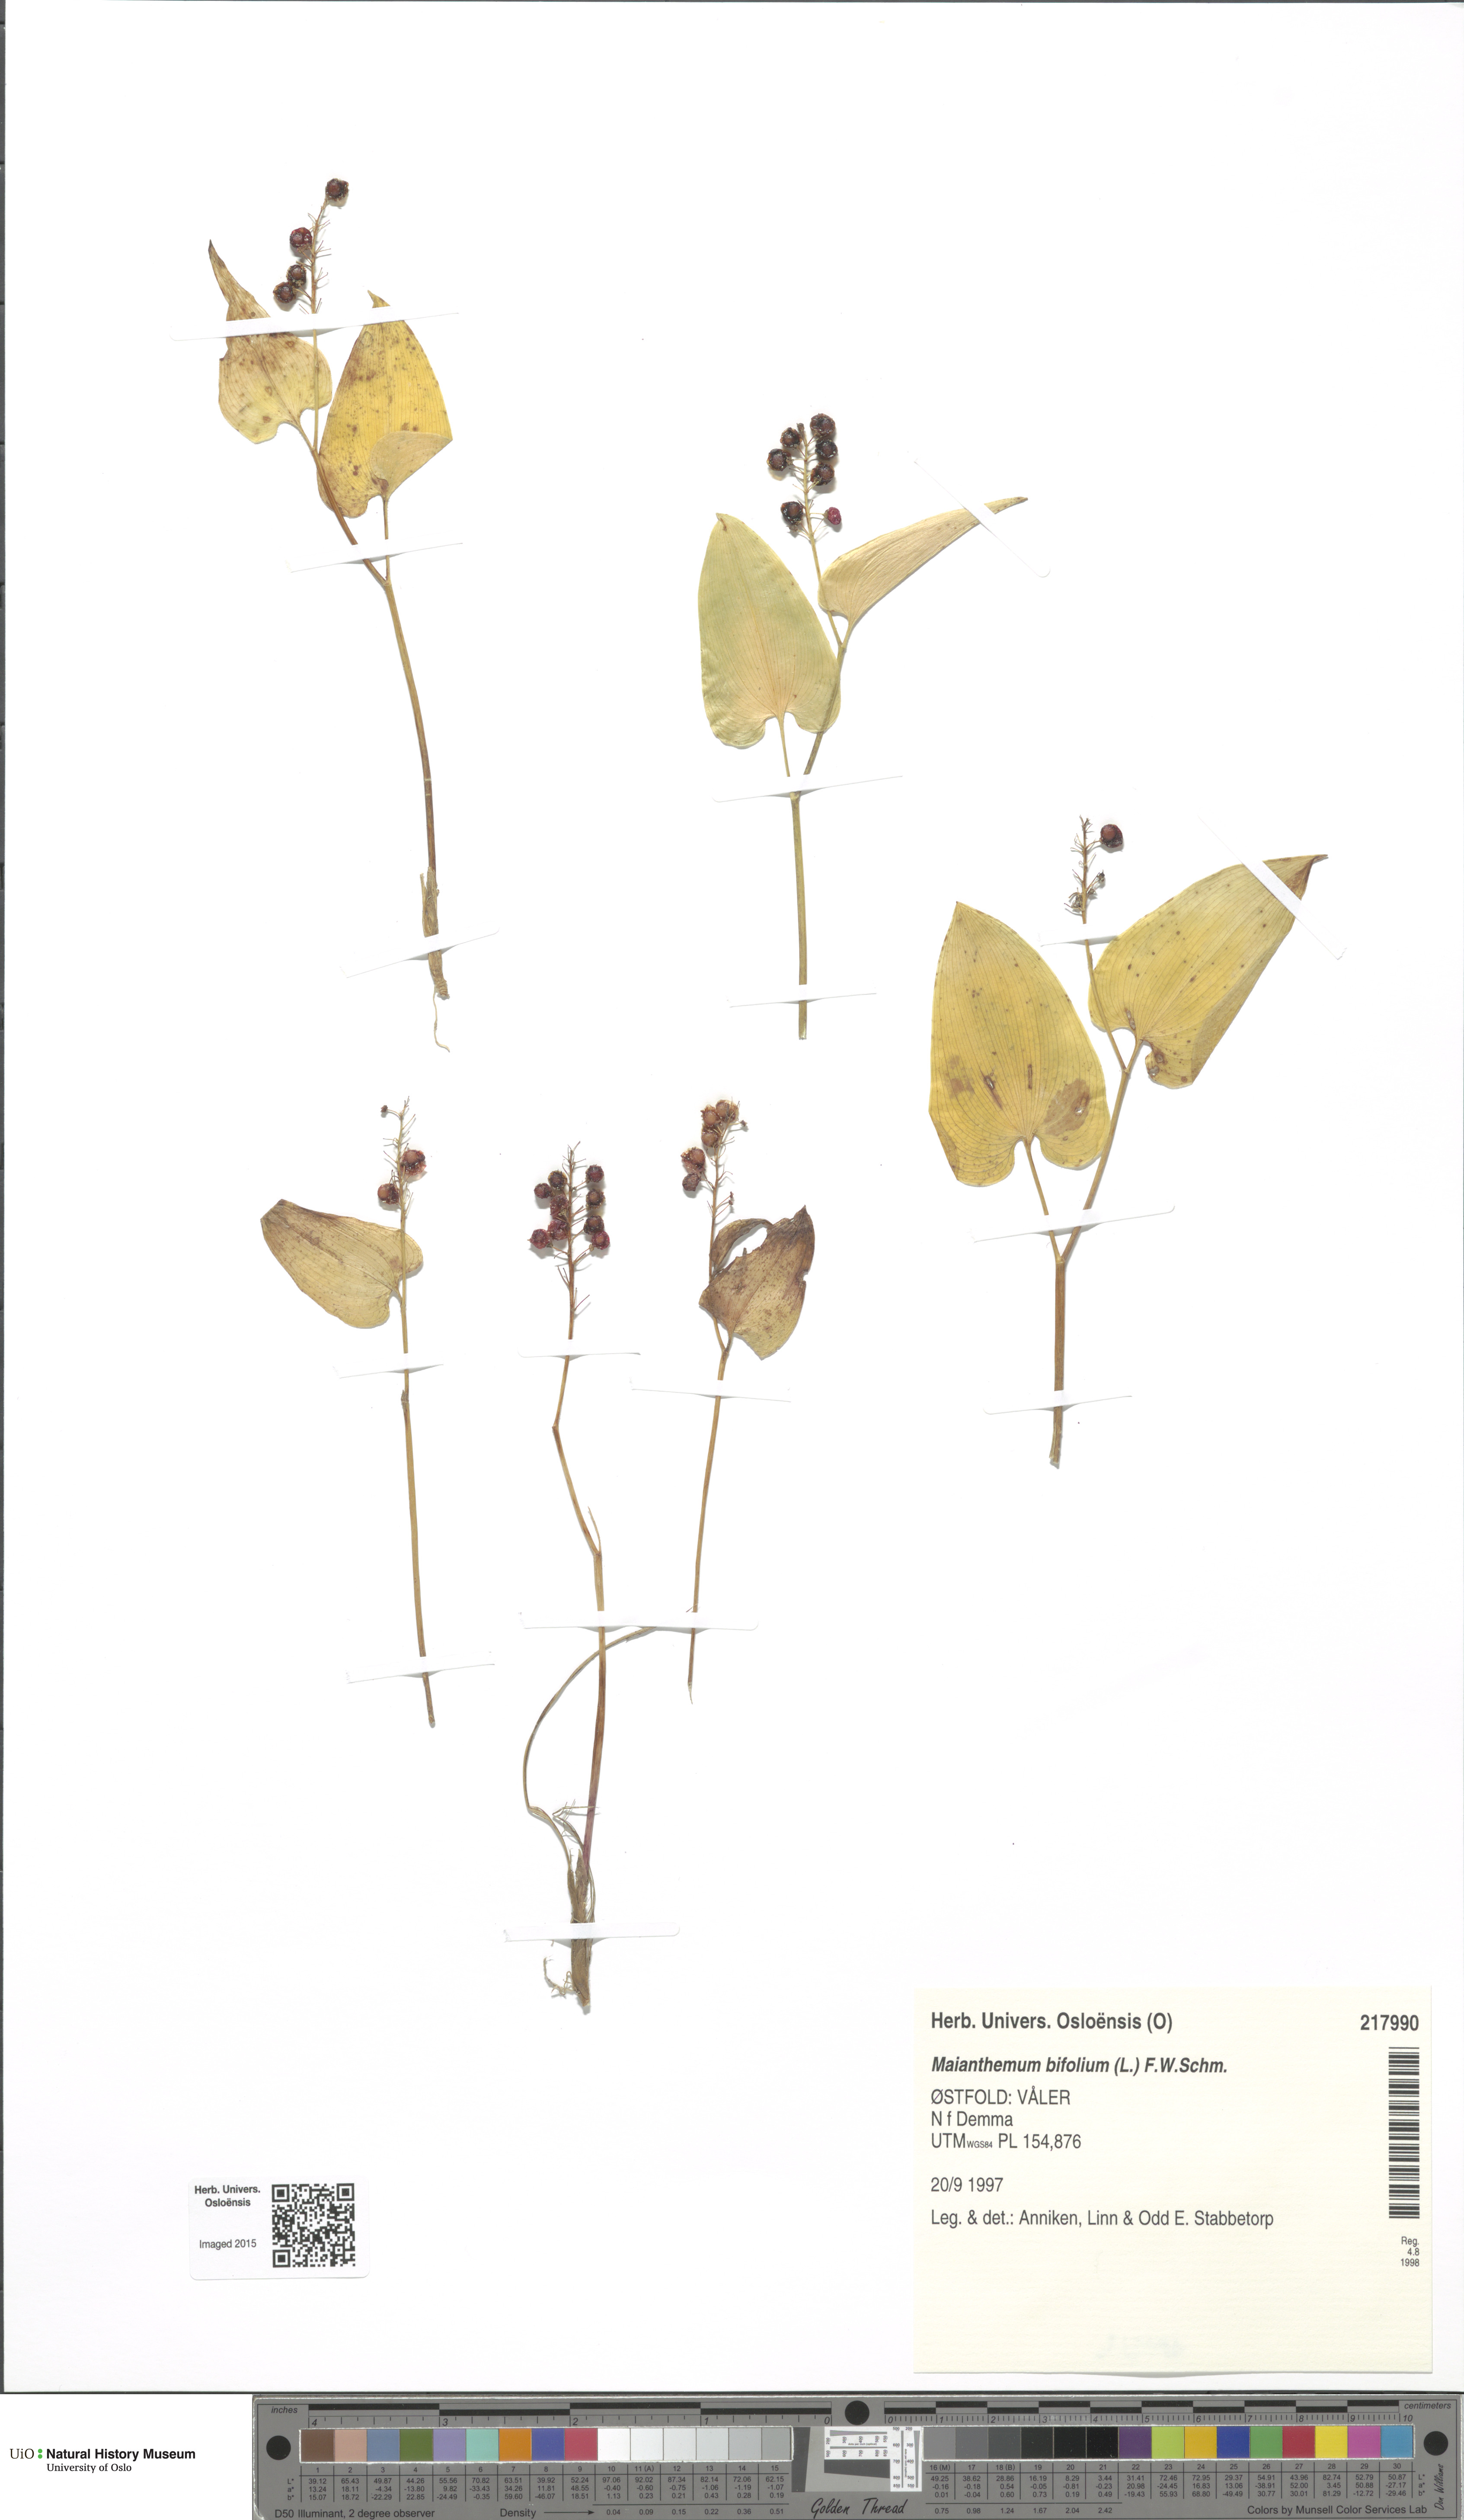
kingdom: Plantae
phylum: Tracheophyta
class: Liliopsida
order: Asparagales
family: Asparagaceae
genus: Maianthemum
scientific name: Maianthemum bifolium
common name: May lily
